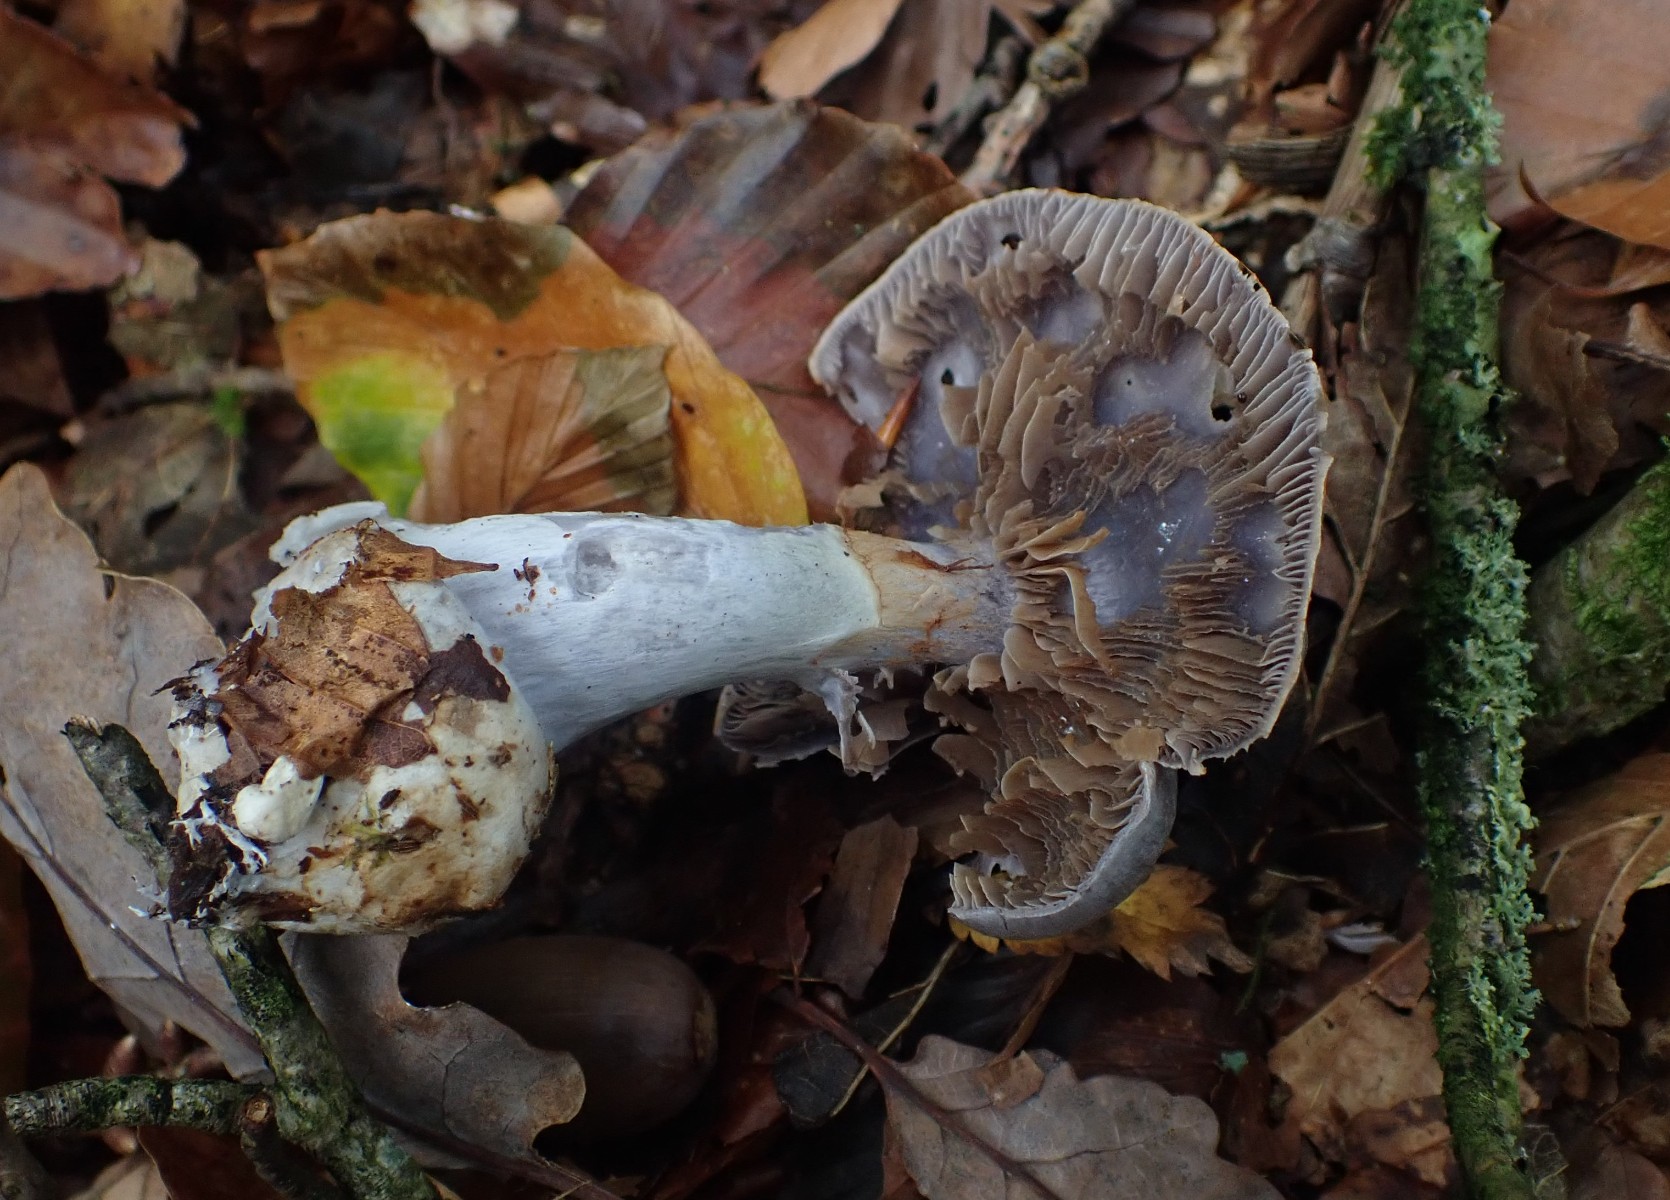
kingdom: Fungi
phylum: Basidiomycota
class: Agaricomycetes
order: Agaricales
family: Cortinariaceae
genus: Cortinarius
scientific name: Cortinarius alboviolaceus
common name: lysviolet slørhat
